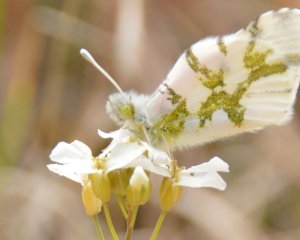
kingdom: Animalia
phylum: Arthropoda
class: Insecta
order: Lepidoptera
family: Pieridae
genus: Euchloe
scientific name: Euchloe olympia
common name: Olympia Marble
